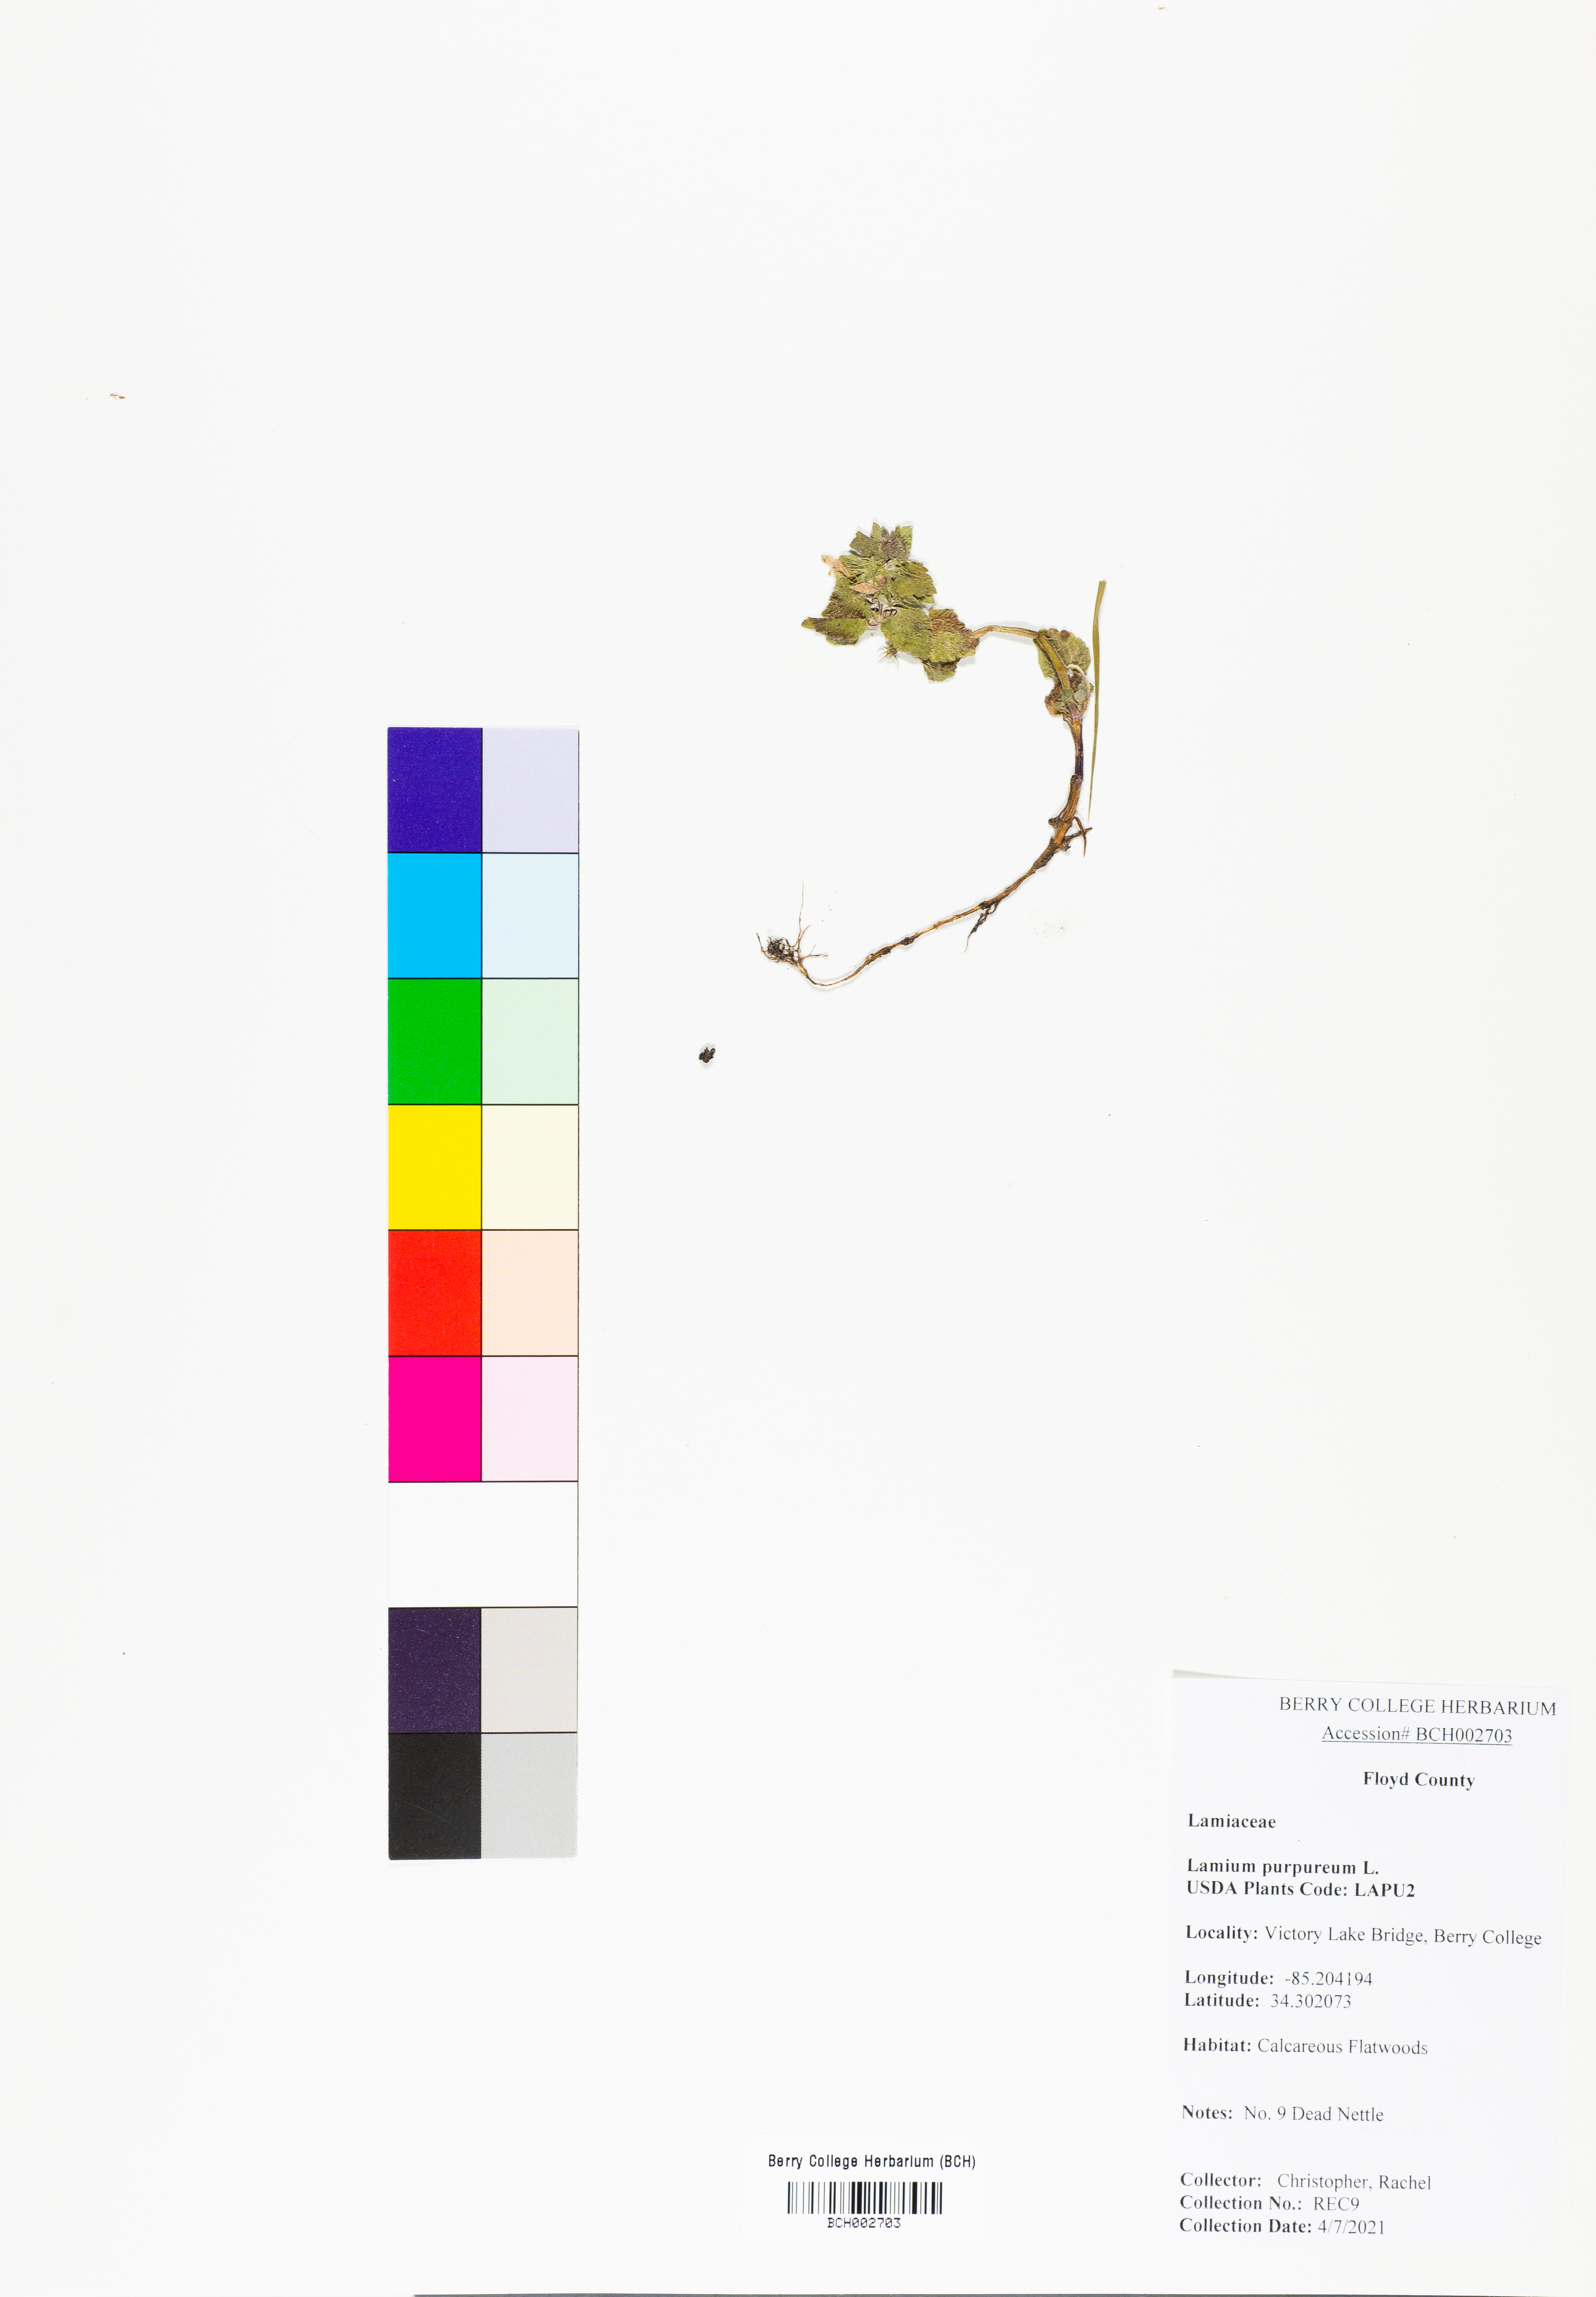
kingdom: Plantae
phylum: Tracheophyta
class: Magnoliopsida
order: Lamiales
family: Lamiaceae
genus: Lamium
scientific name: Lamium purpureum
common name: Red dead-nettle
